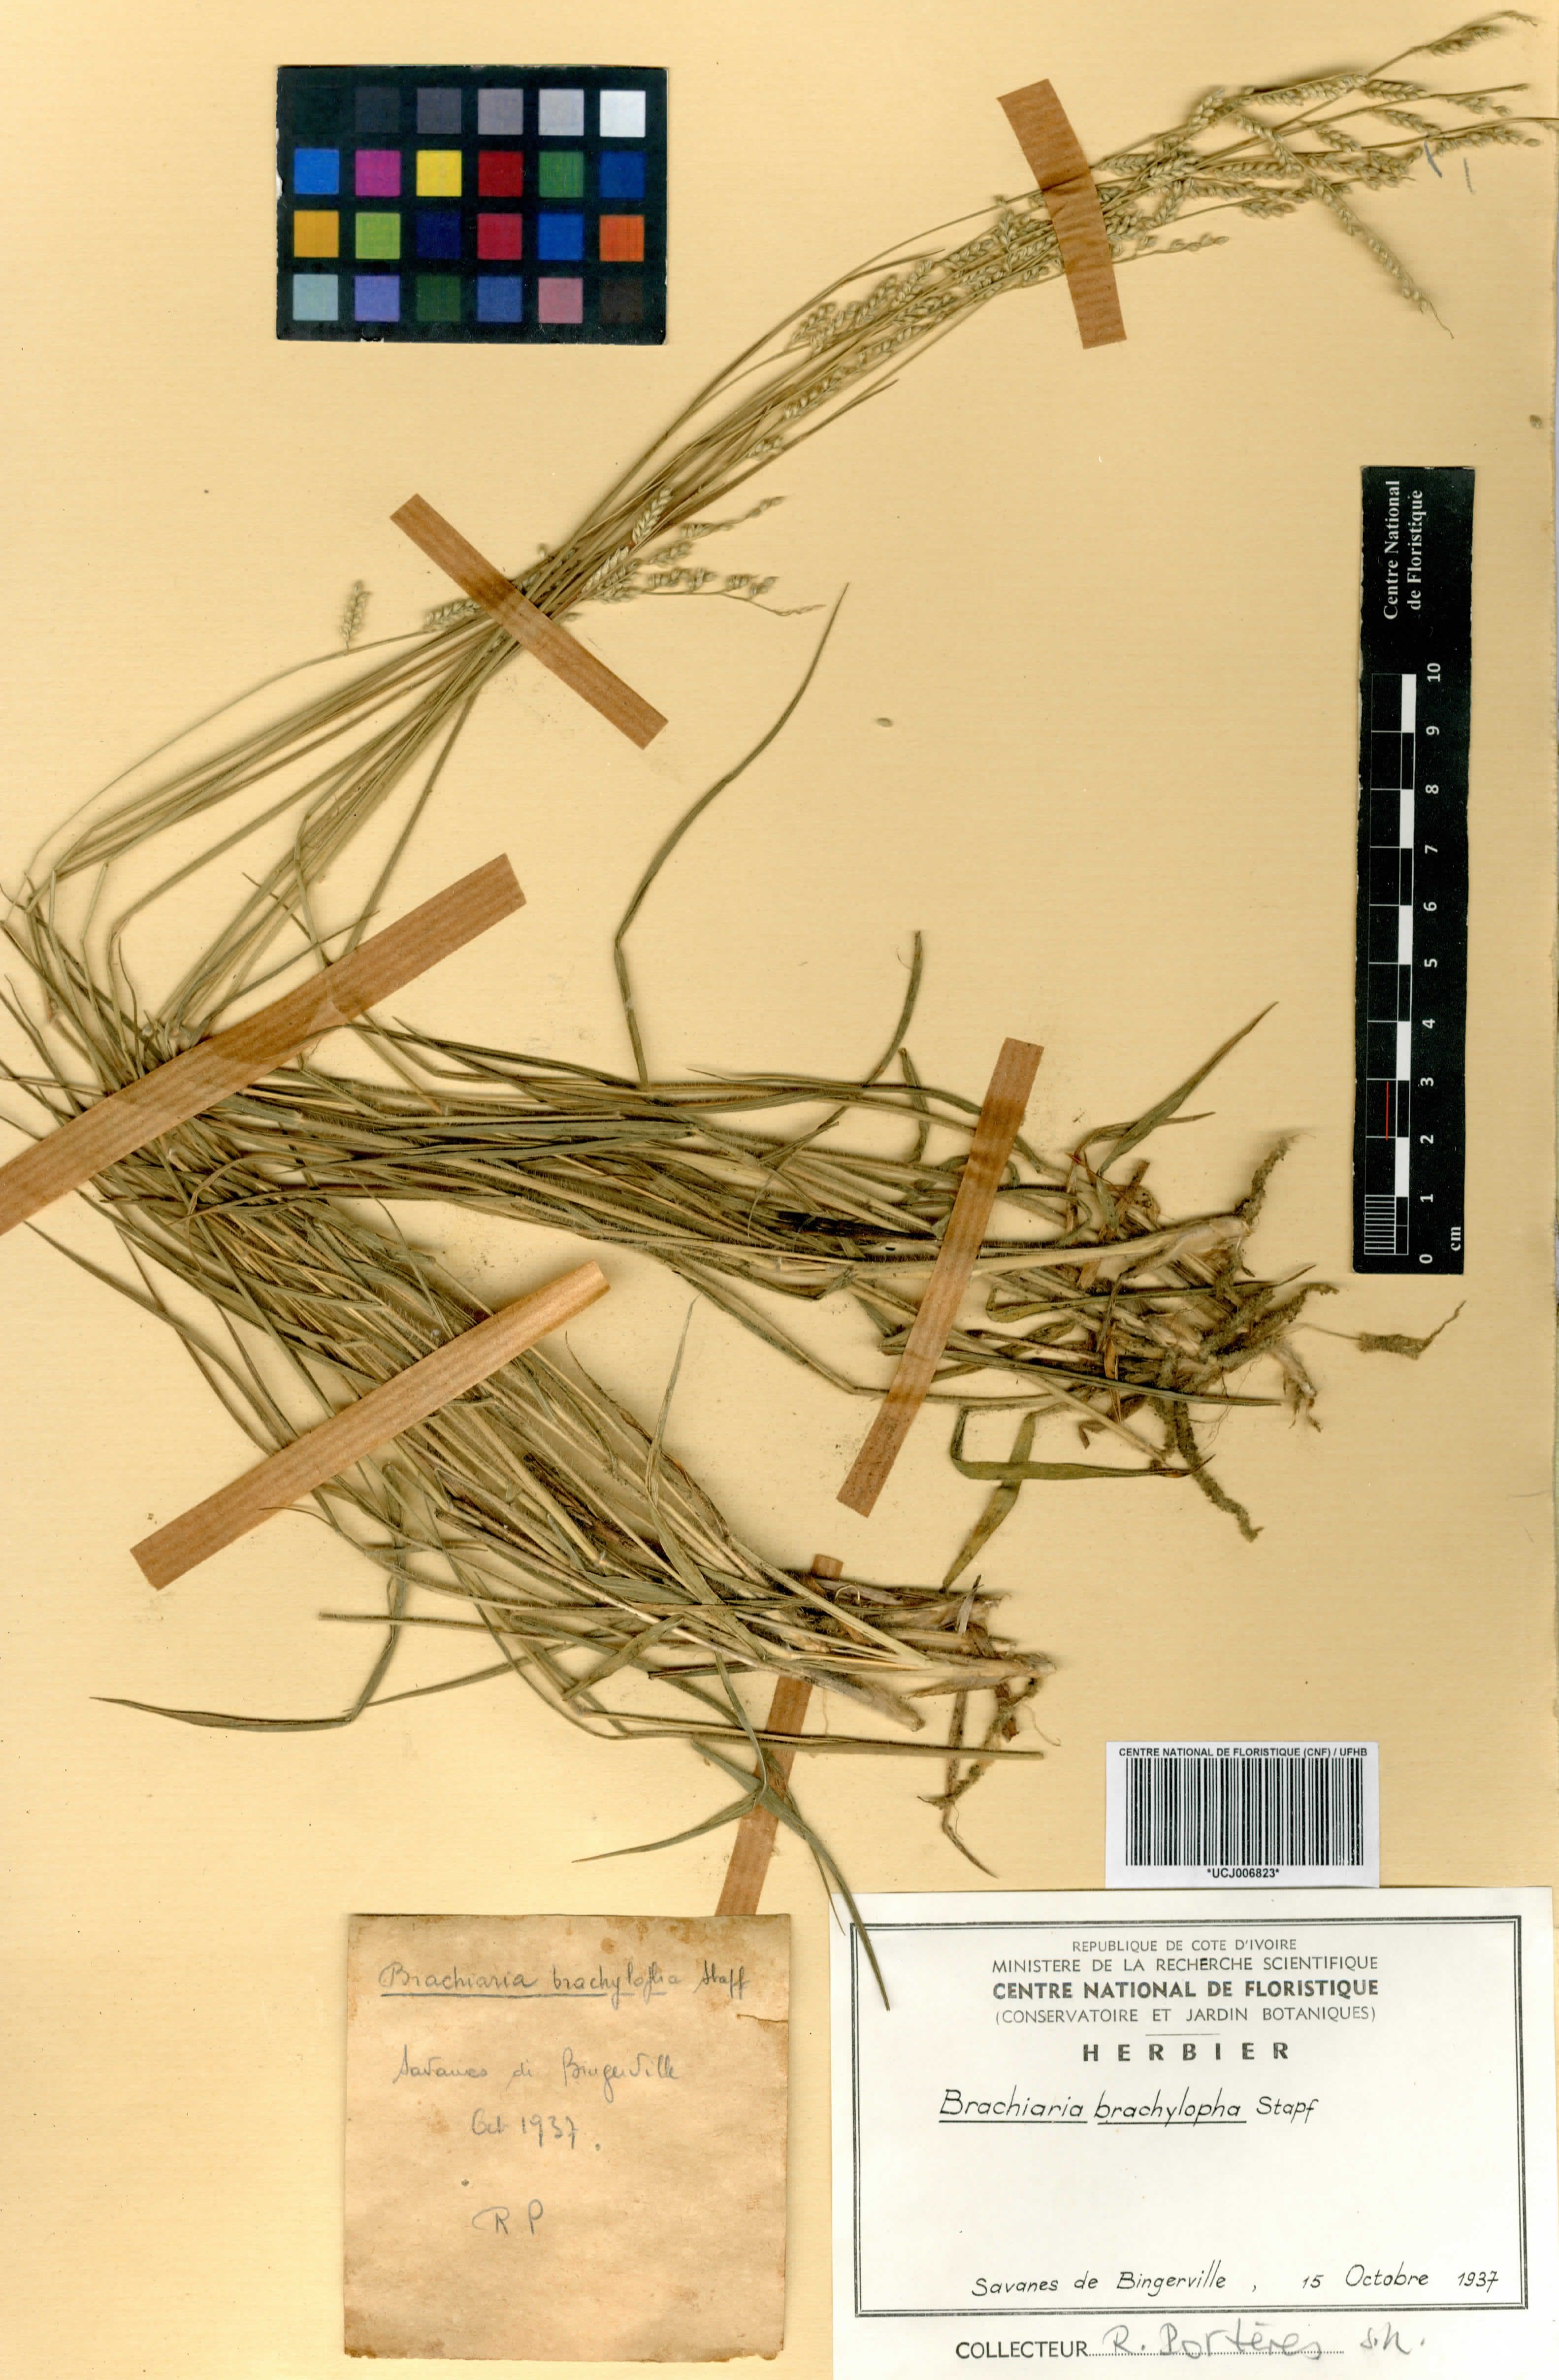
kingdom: Plantae
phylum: Tracheophyta
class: Liliopsida
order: Poales
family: Poaceae
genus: Urochloa
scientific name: Urochloa serrata
